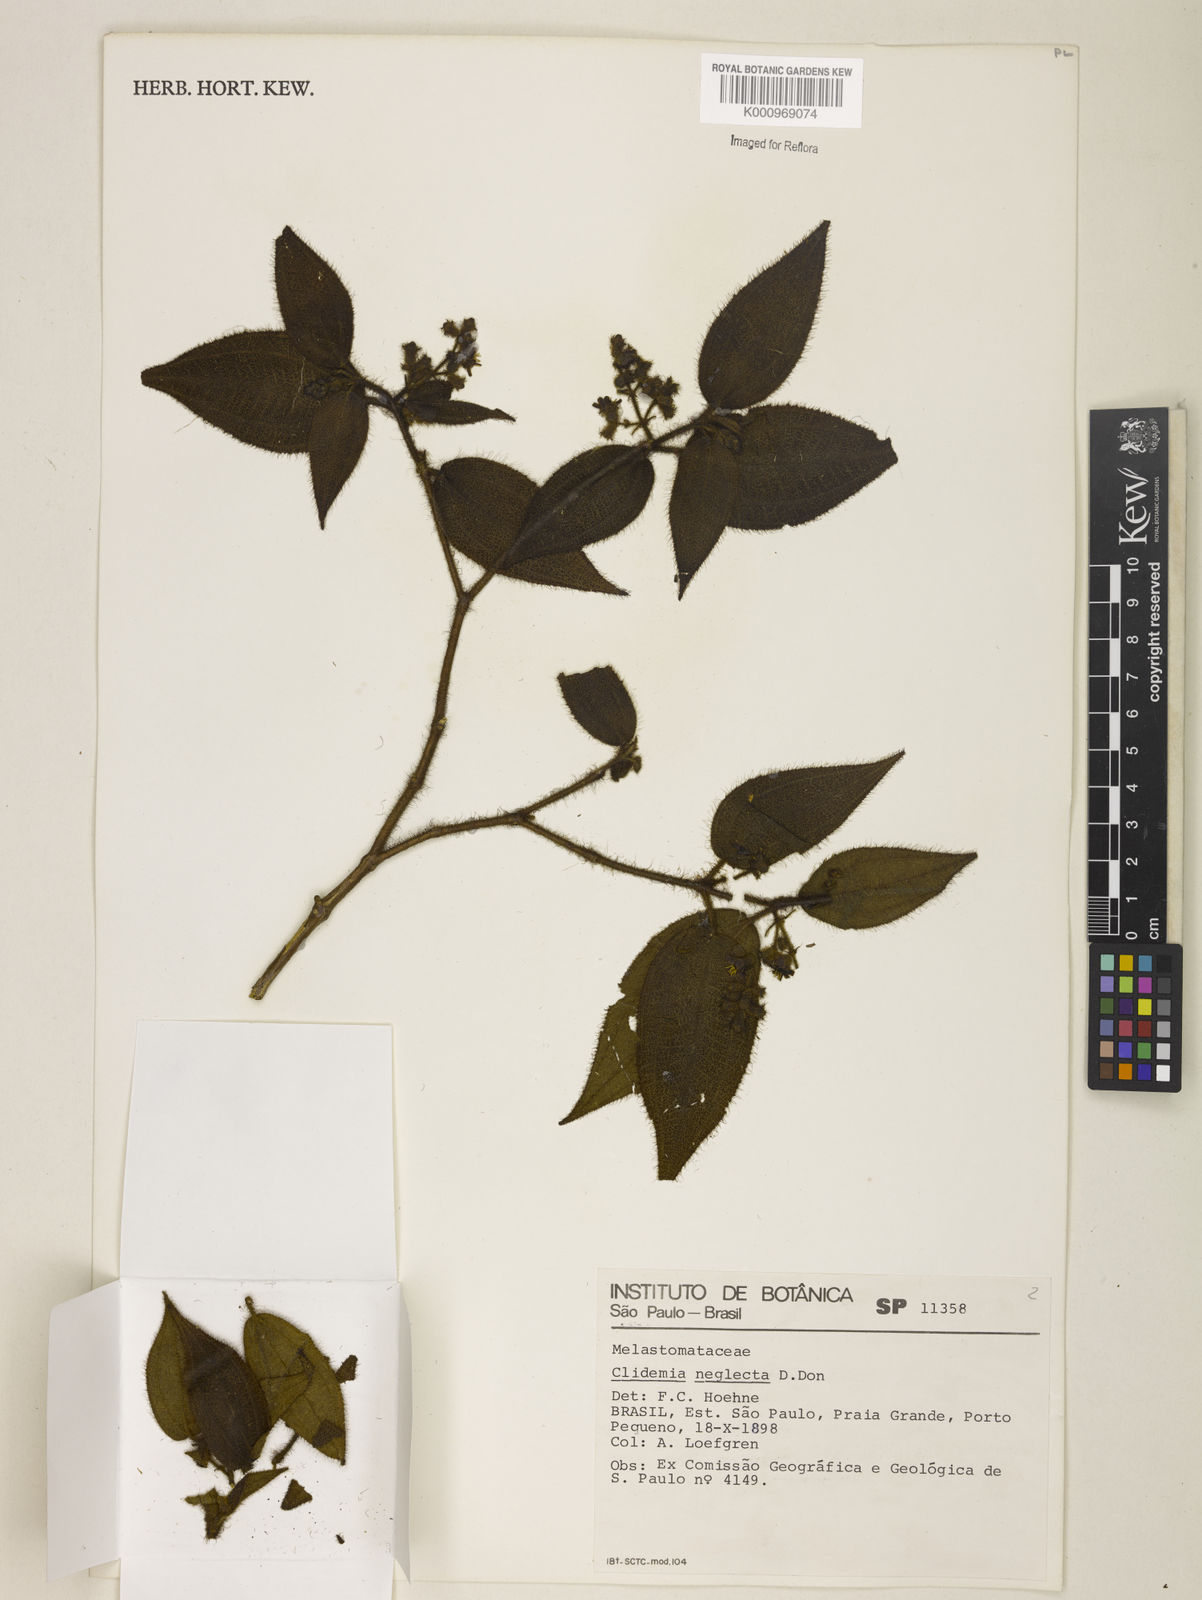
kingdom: Plantae
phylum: Tracheophyta
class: Magnoliopsida
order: Myrtales
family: Melastomataceae
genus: Miconia
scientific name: Miconia dependens
